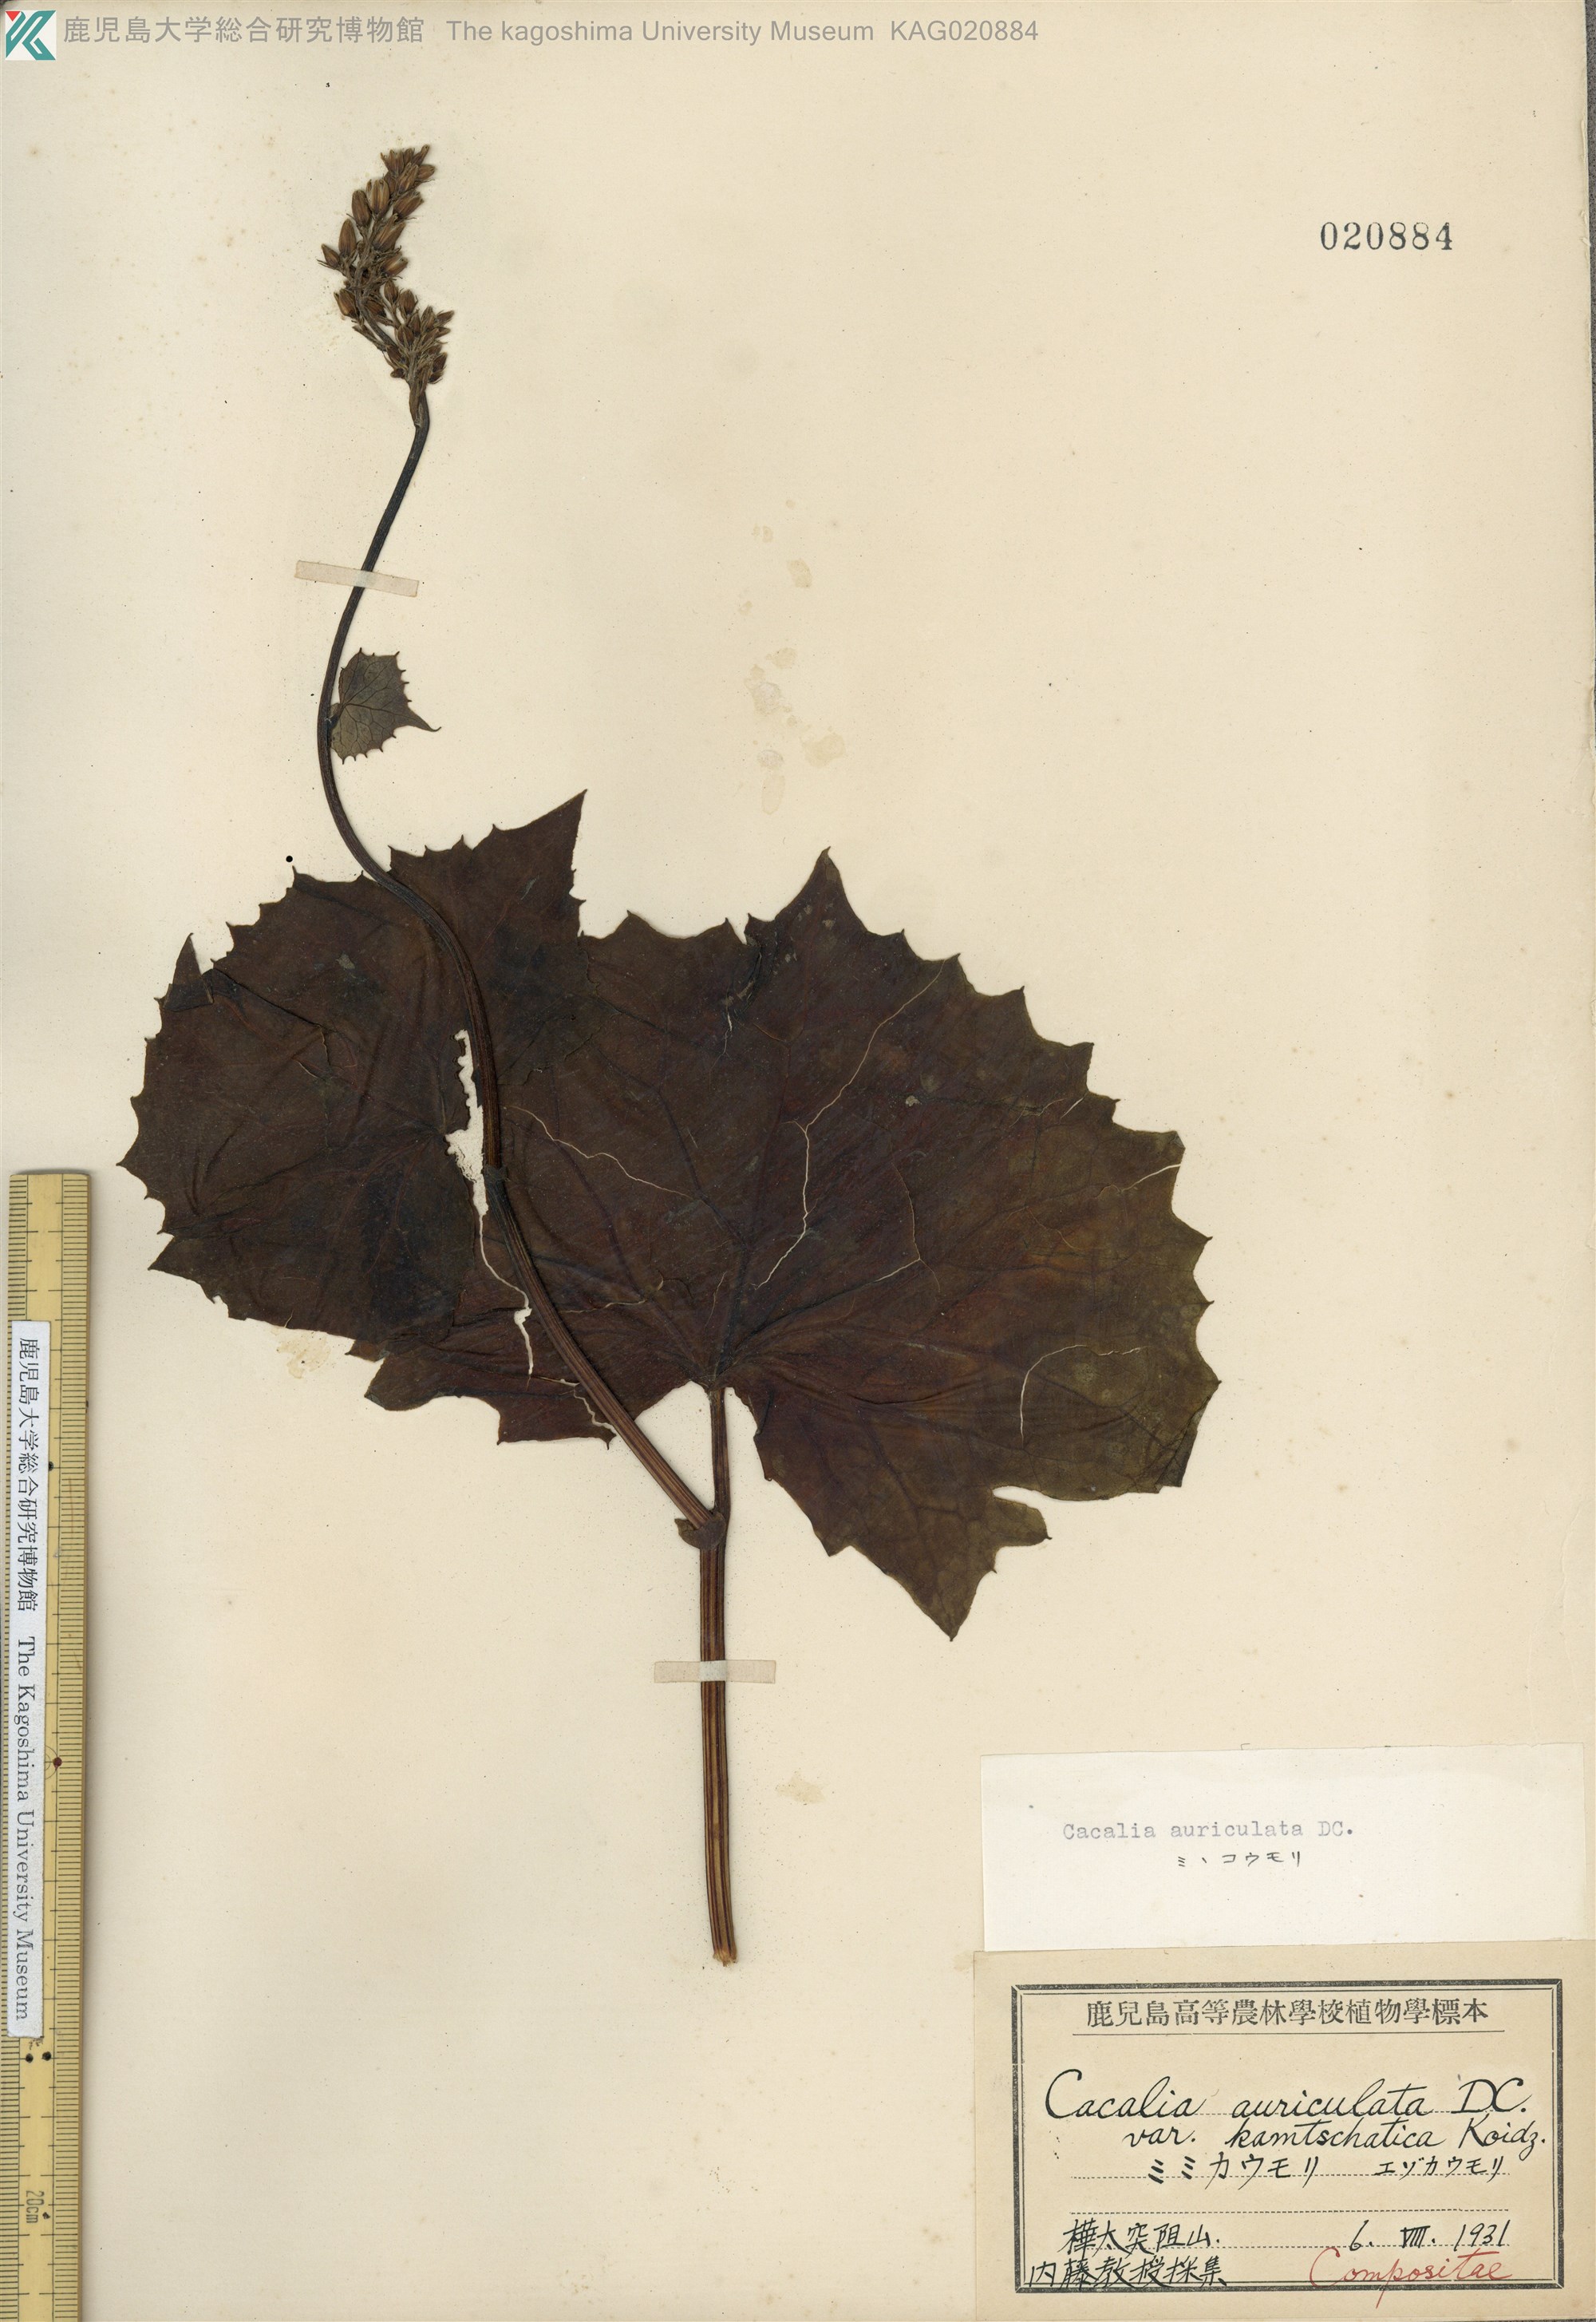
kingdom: Plantae
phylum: Tracheophyta
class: Magnoliopsida
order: Asterales
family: Asteraceae
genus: Parasenecio
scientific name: Parasenecio kamtschaticus
